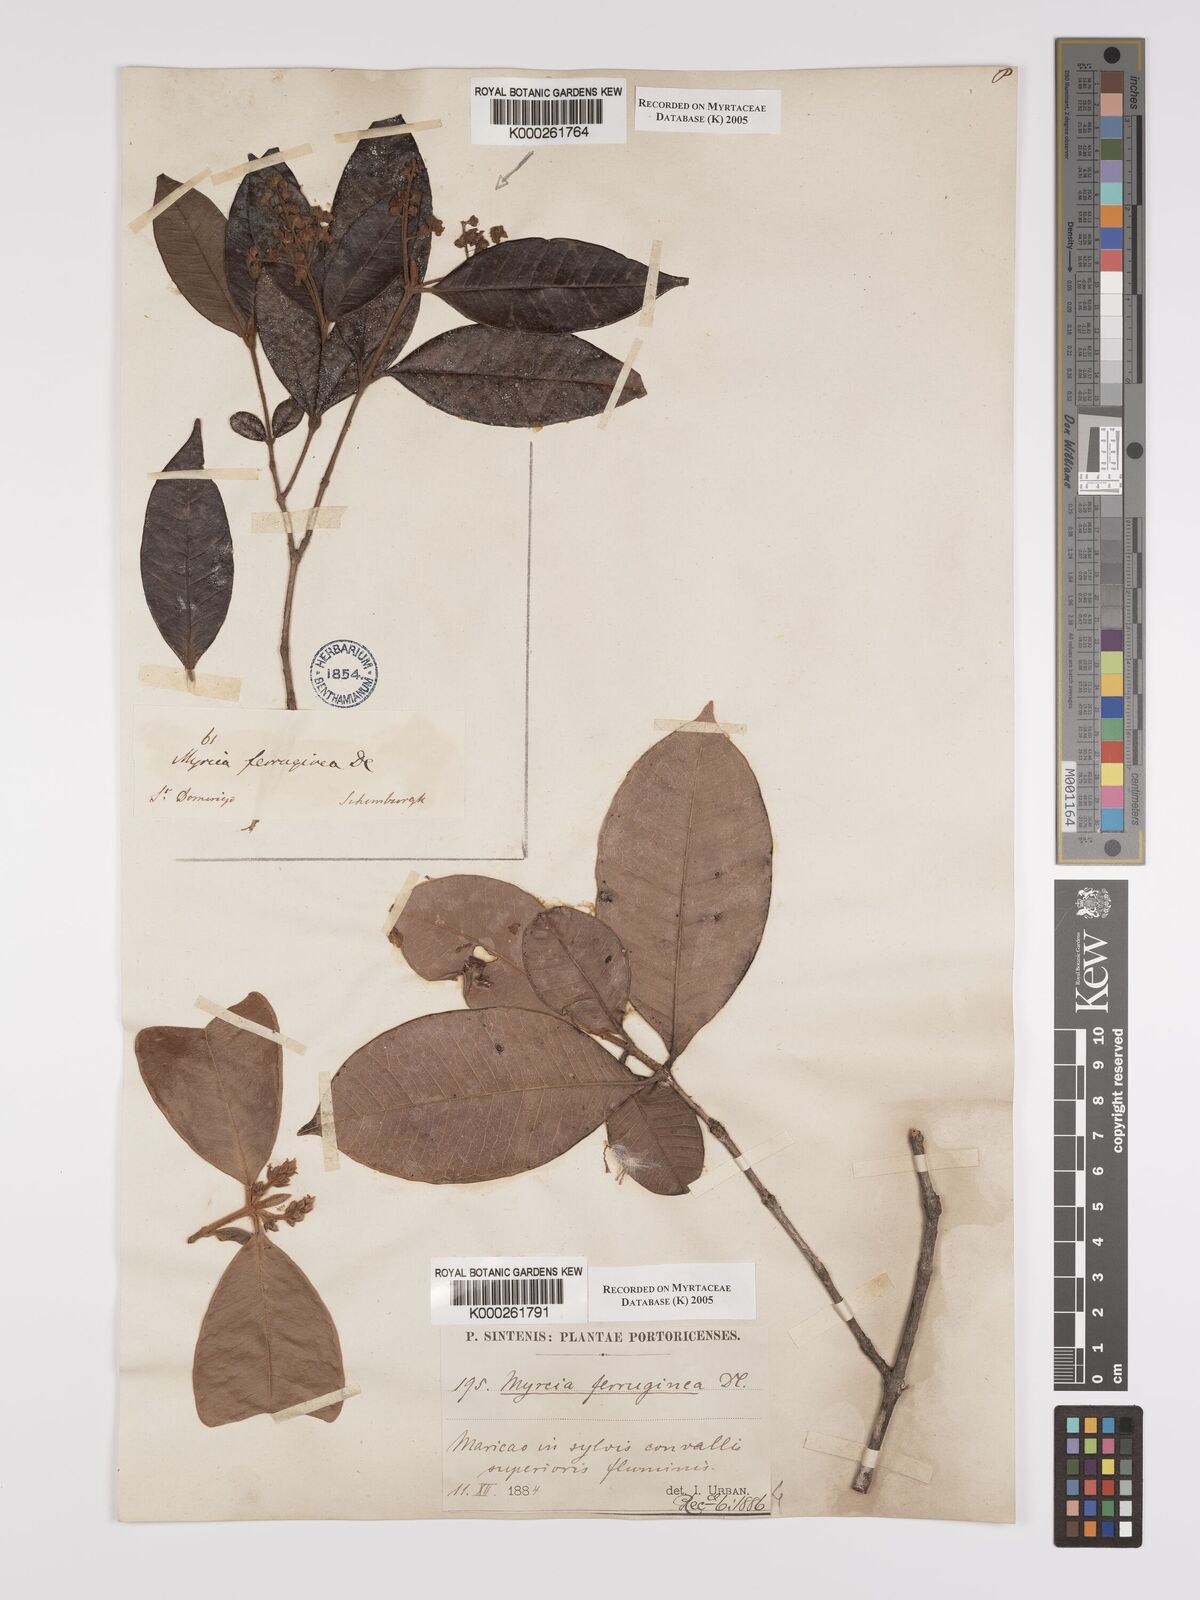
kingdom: Plantae
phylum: Tracheophyta
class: Magnoliopsida
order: Myrtales
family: Myrtaceae
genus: Myrcia
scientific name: Myrcia ferruginea
